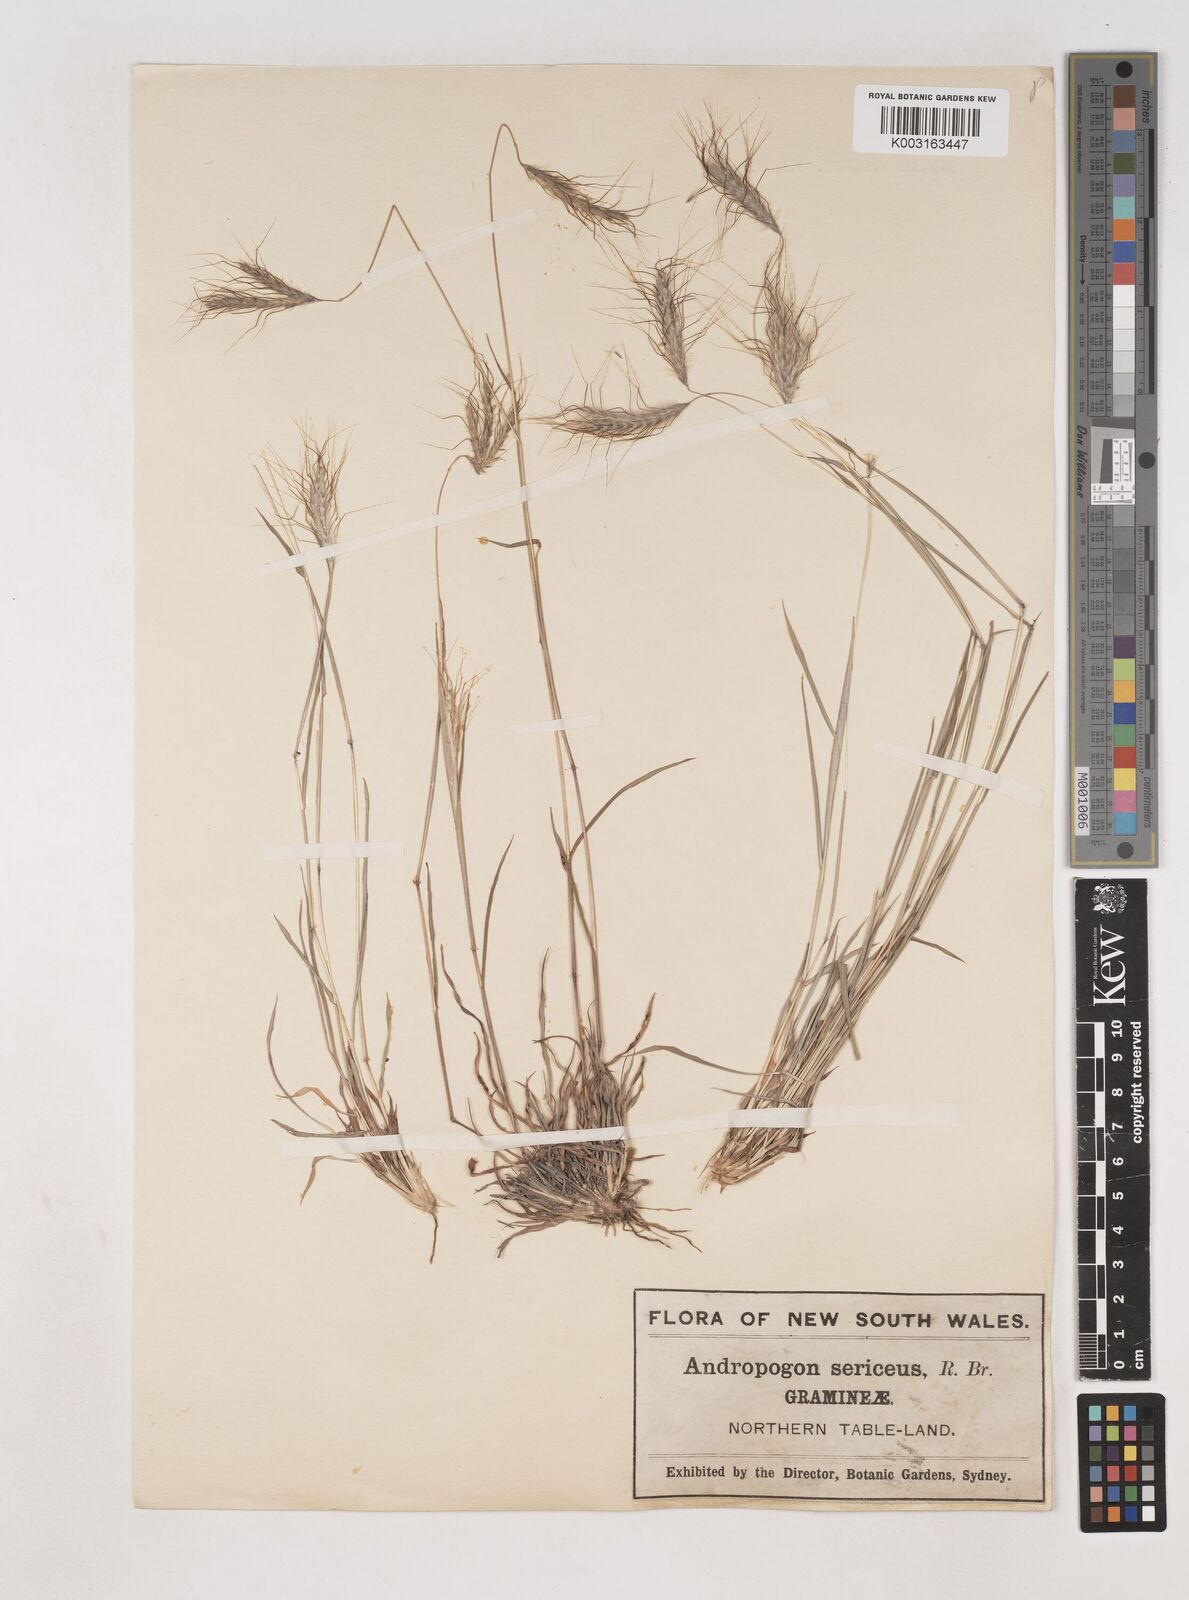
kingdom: Plantae
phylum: Tracheophyta
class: Liliopsida
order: Poales
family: Poaceae
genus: Dichanthium
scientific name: Dichanthium sericeum
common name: Silky bluestem
